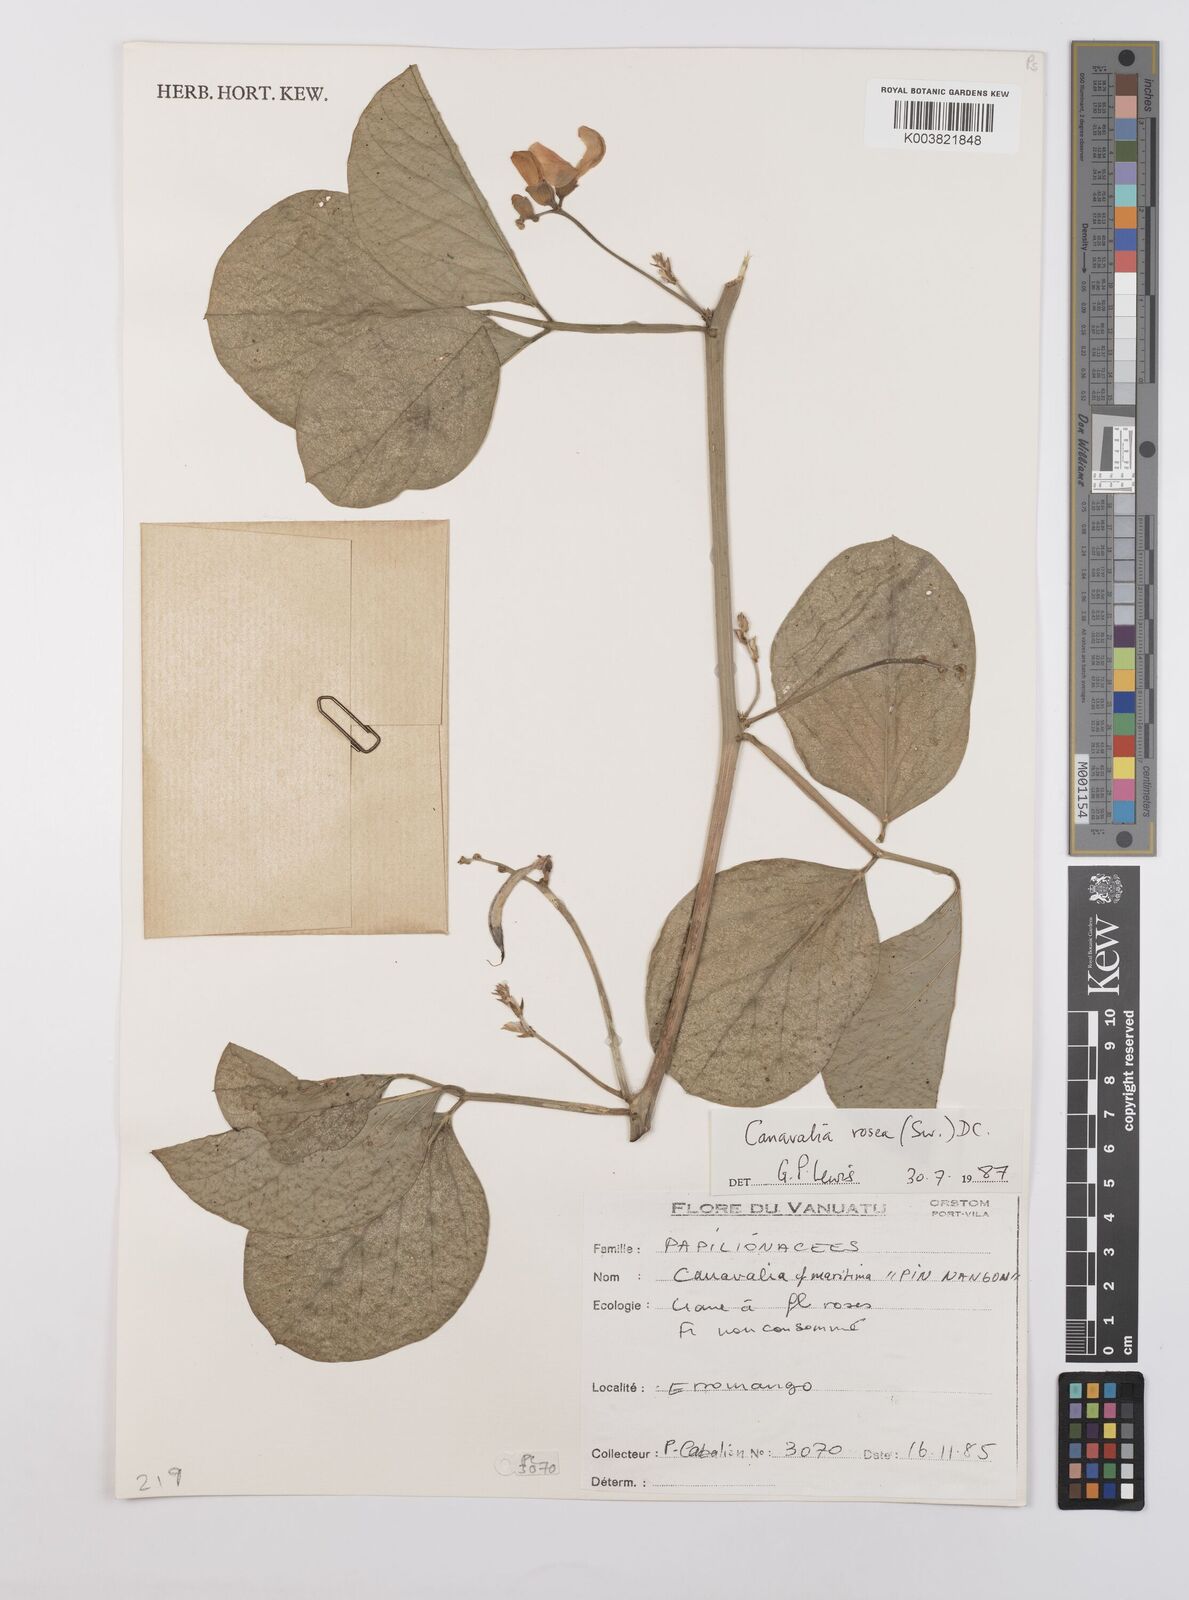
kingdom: Plantae
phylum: Tracheophyta
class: Magnoliopsida
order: Fabales
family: Fabaceae
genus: Canavalia
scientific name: Canavalia rosea
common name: Beach-bean
